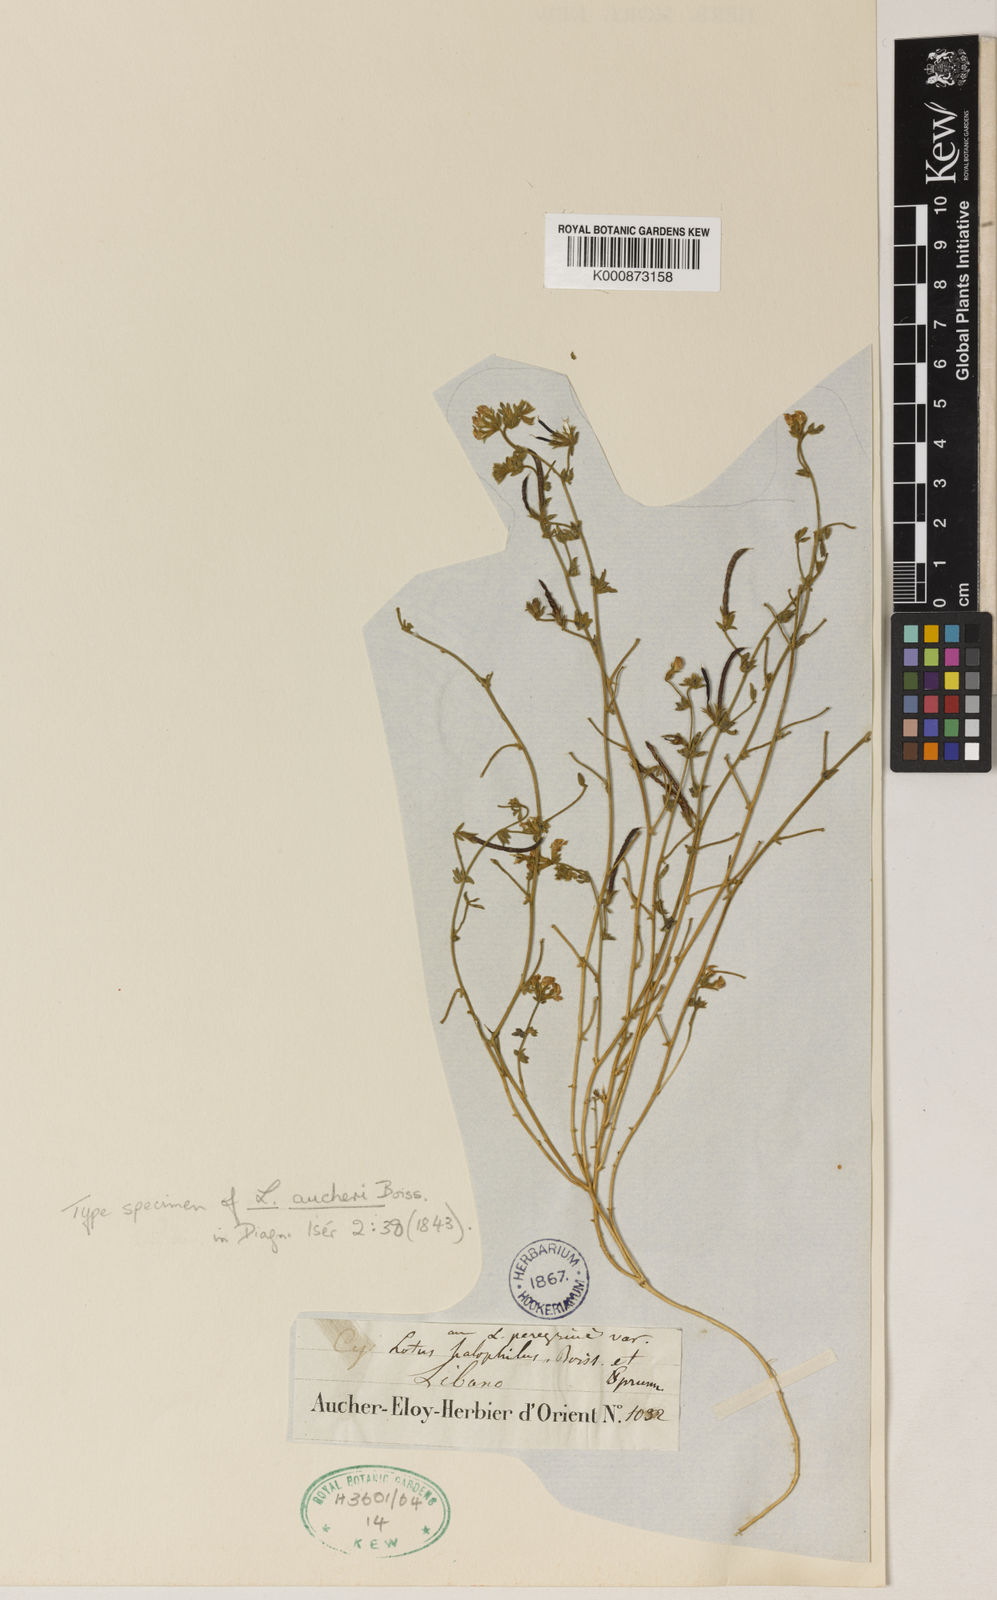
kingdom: Plantae
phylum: Tracheophyta
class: Magnoliopsida
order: Fabales
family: Fabaceae
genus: Lotus
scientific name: Lotus halophilus
